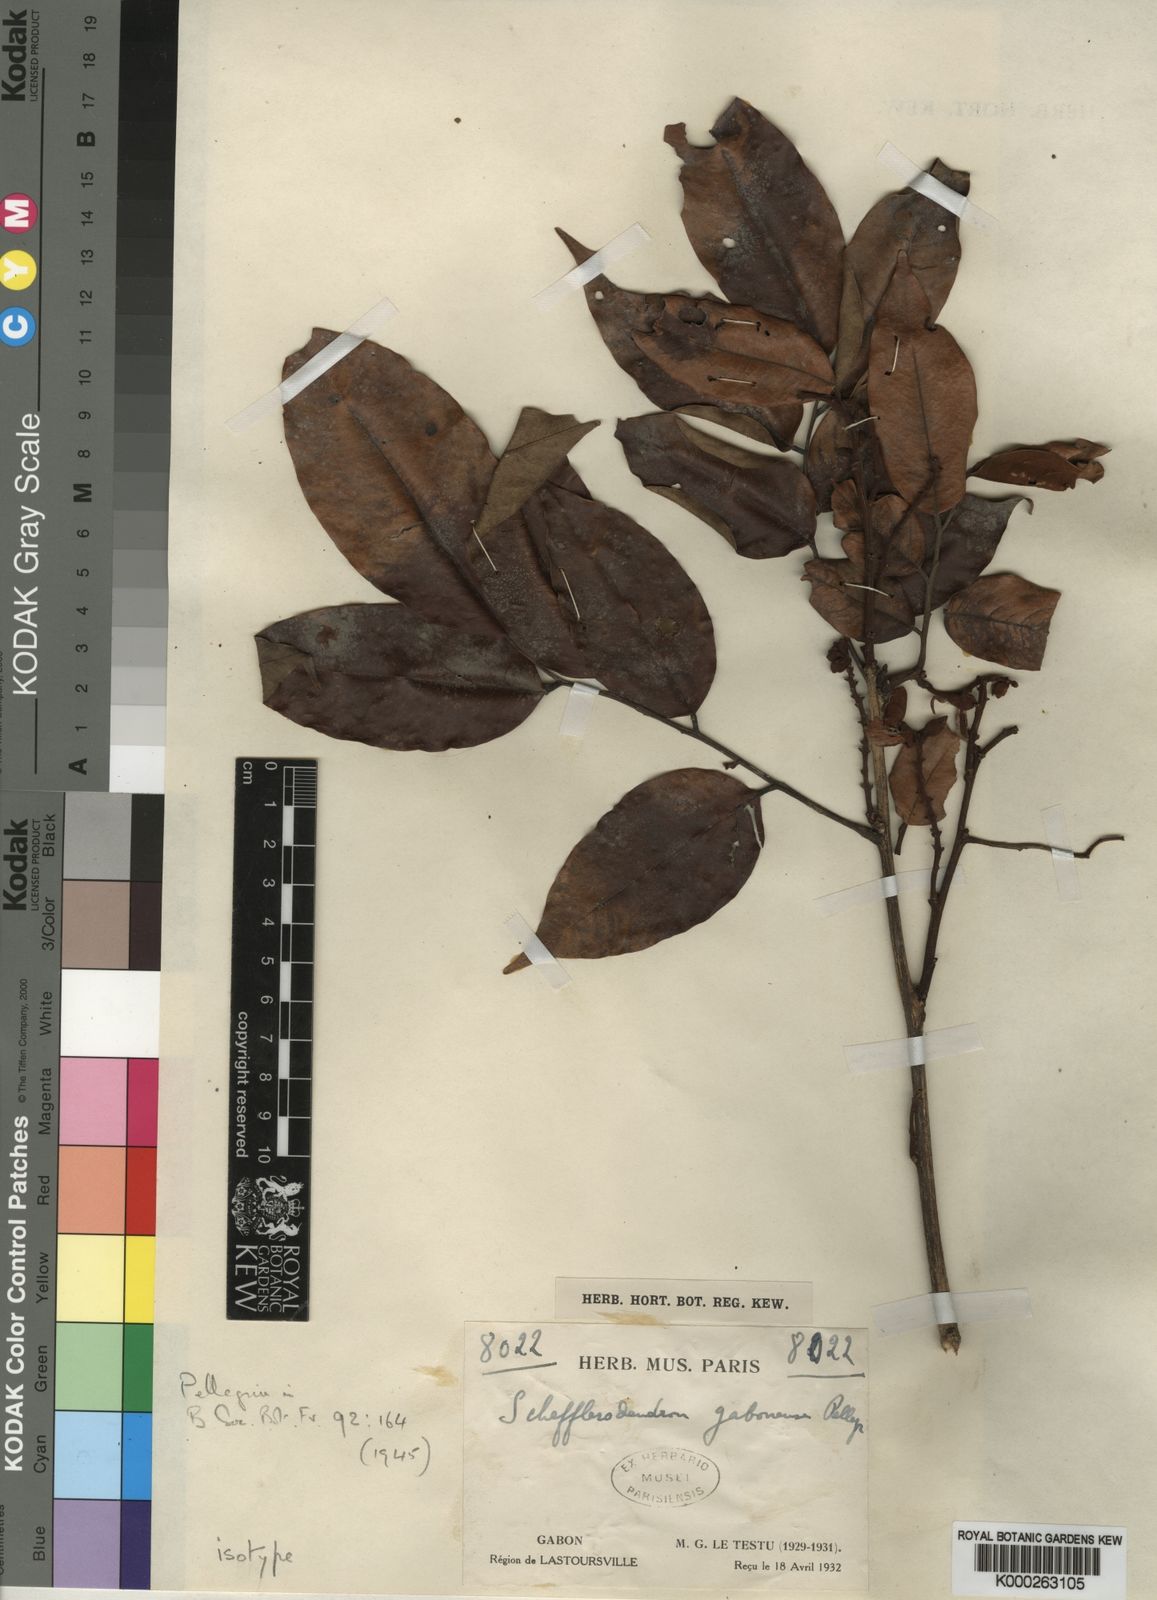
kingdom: Plantae
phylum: Tracheophyta
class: Magnoliopsida
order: Fabales
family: Fabaceae
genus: Schefflerodendron
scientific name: Schefflerodendron gabonense
